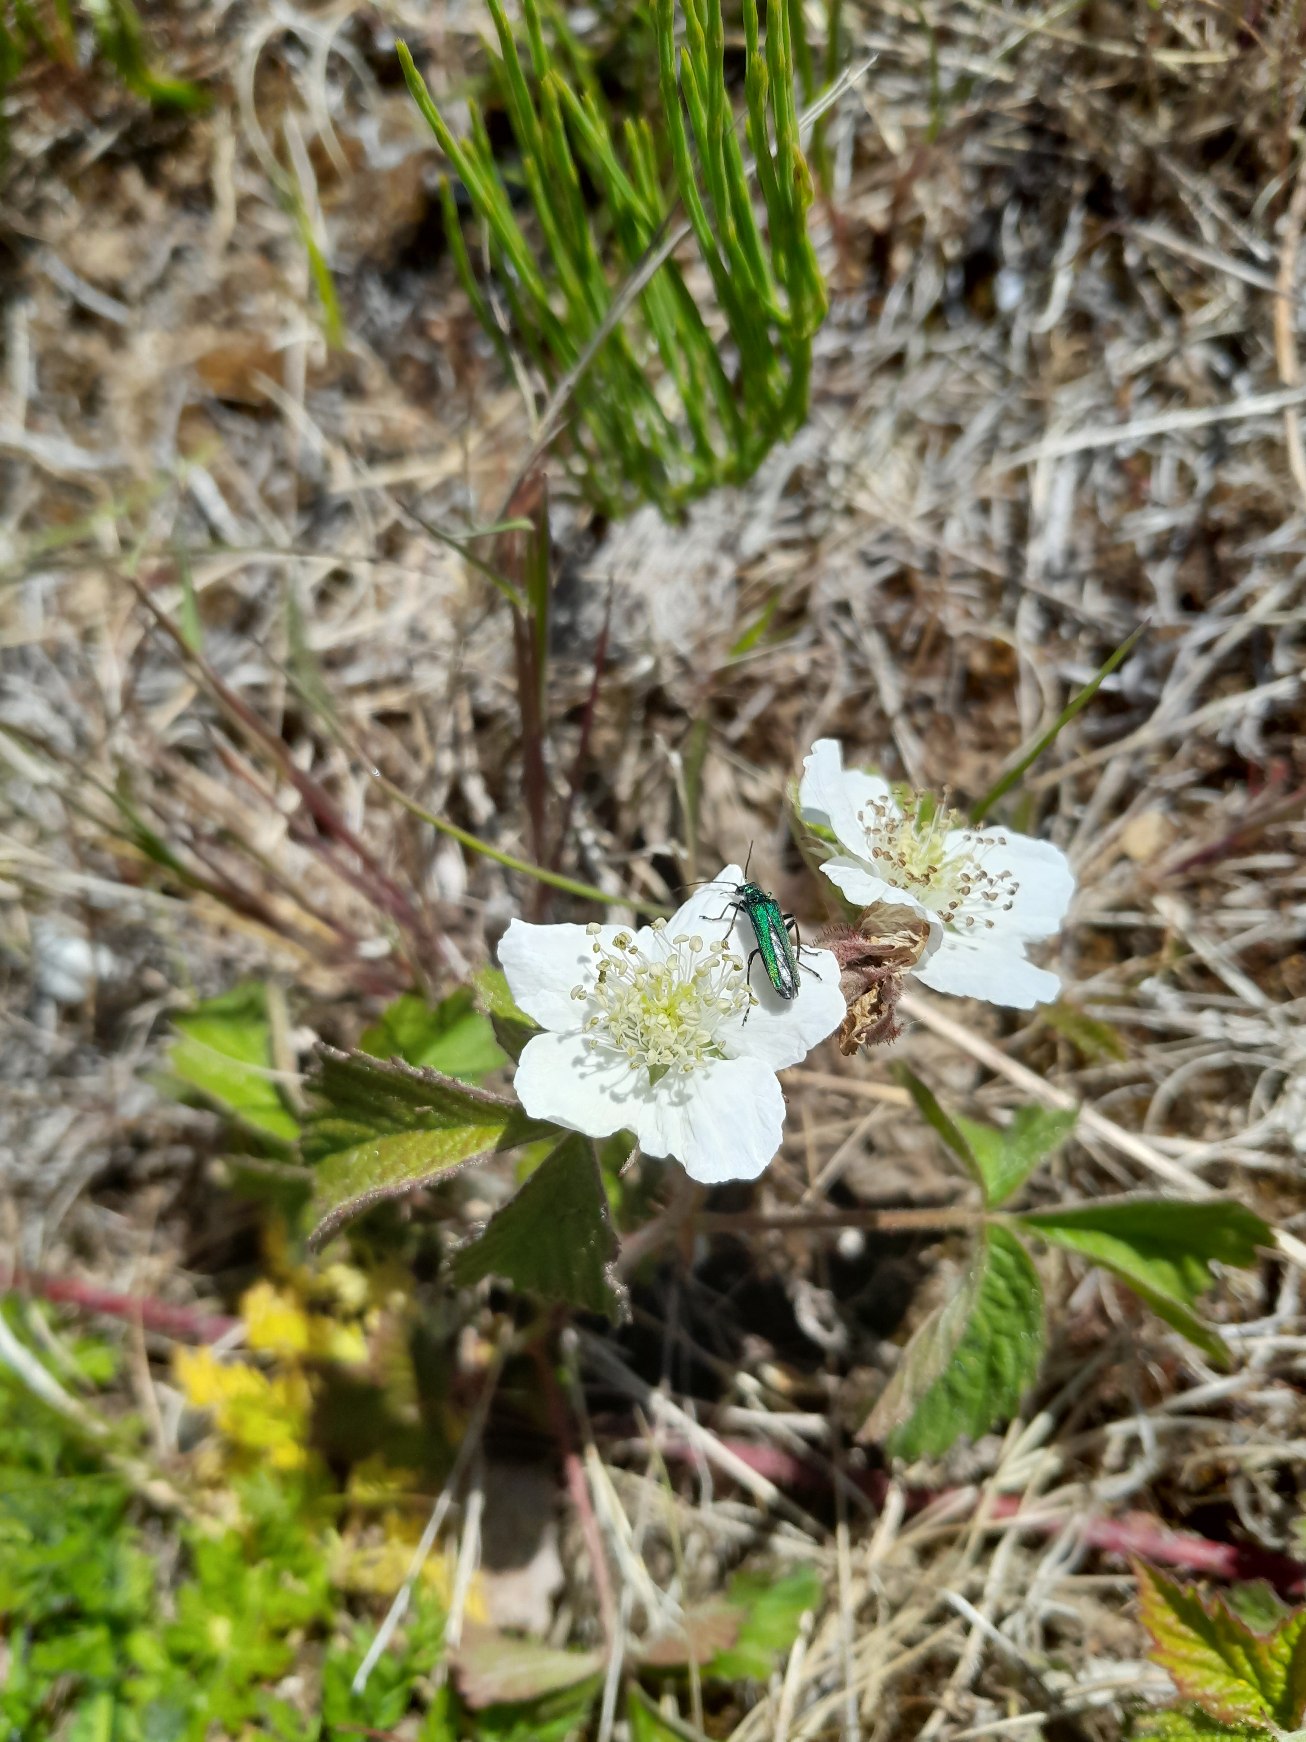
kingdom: Animalia
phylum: Arthropoda
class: Insecta
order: Coleoptera
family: Oedemeridae
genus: Oedemera
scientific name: Oedemera nobilis
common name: Tyklårssolbille
